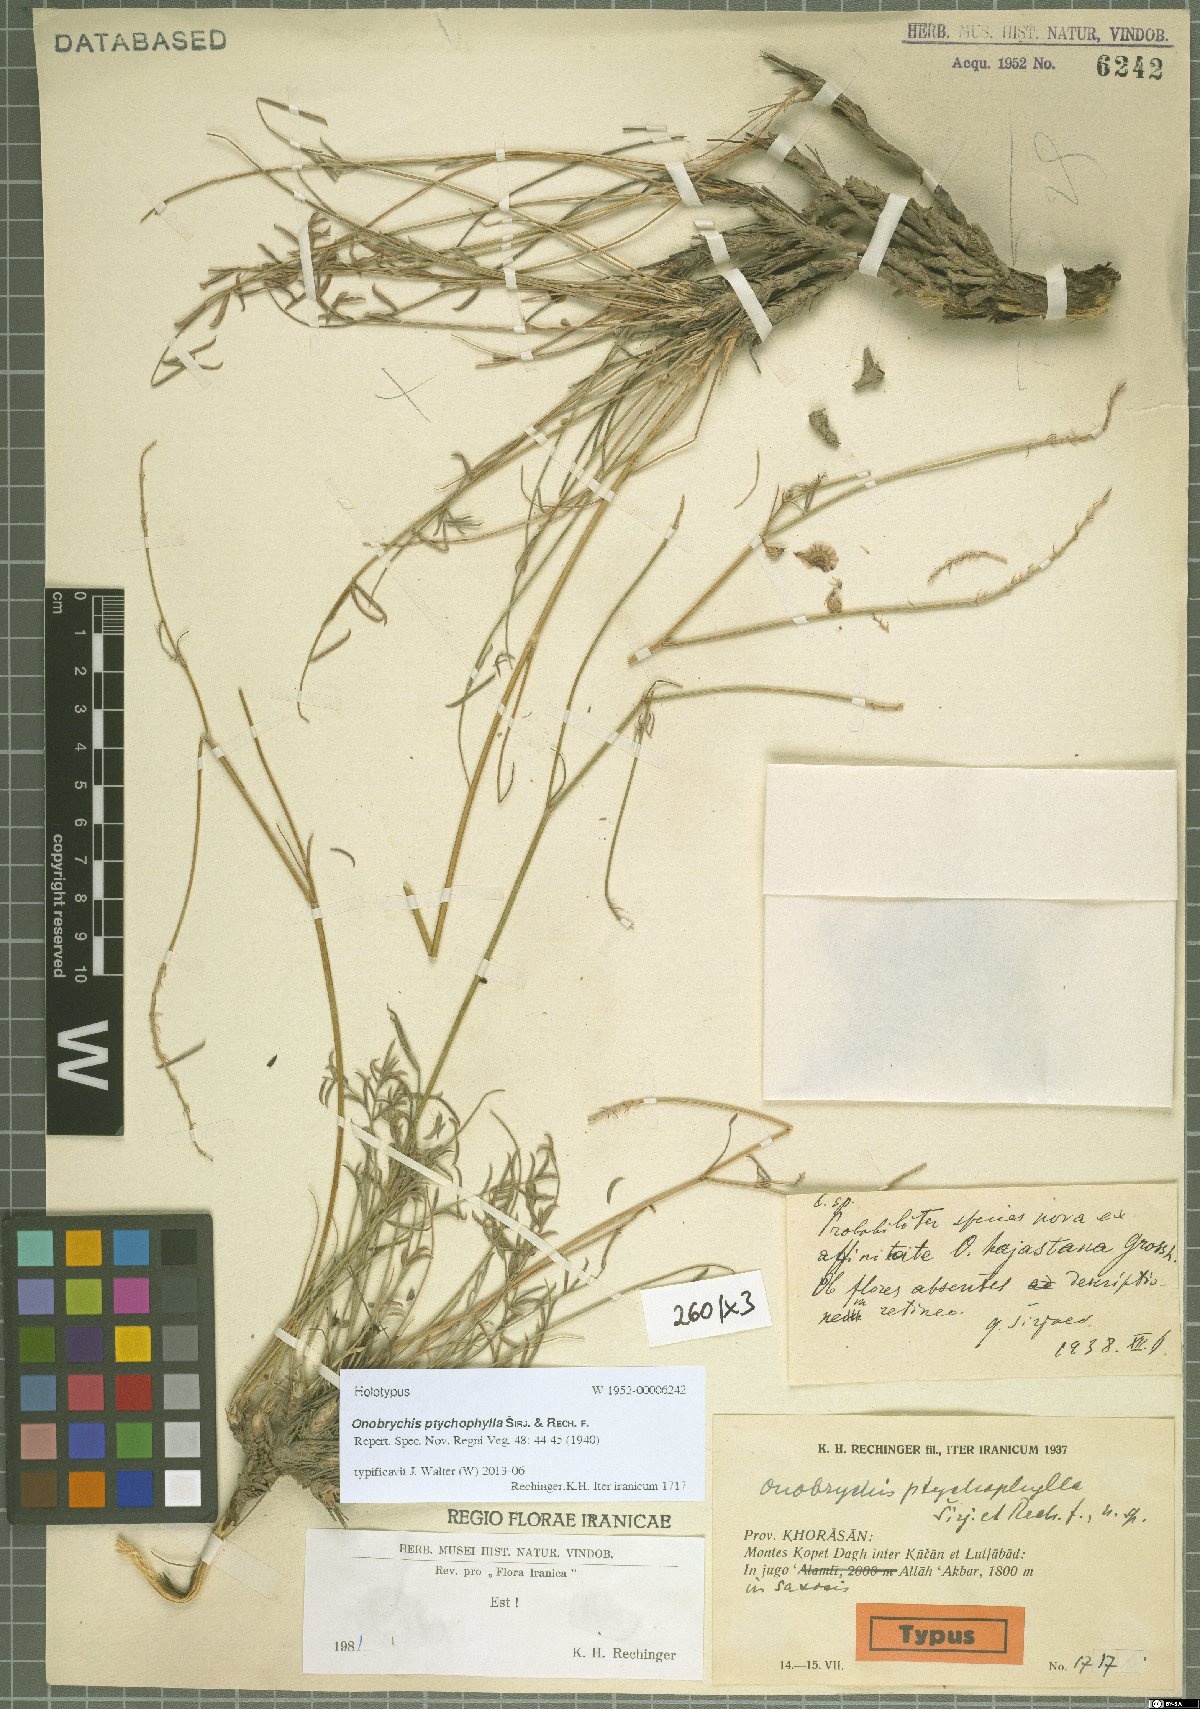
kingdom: Plantae
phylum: Tracheophyta
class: Magnoliopsida
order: Fabales
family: Fabaceae
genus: Onobrychis
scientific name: Onobrychis ptychophylla
